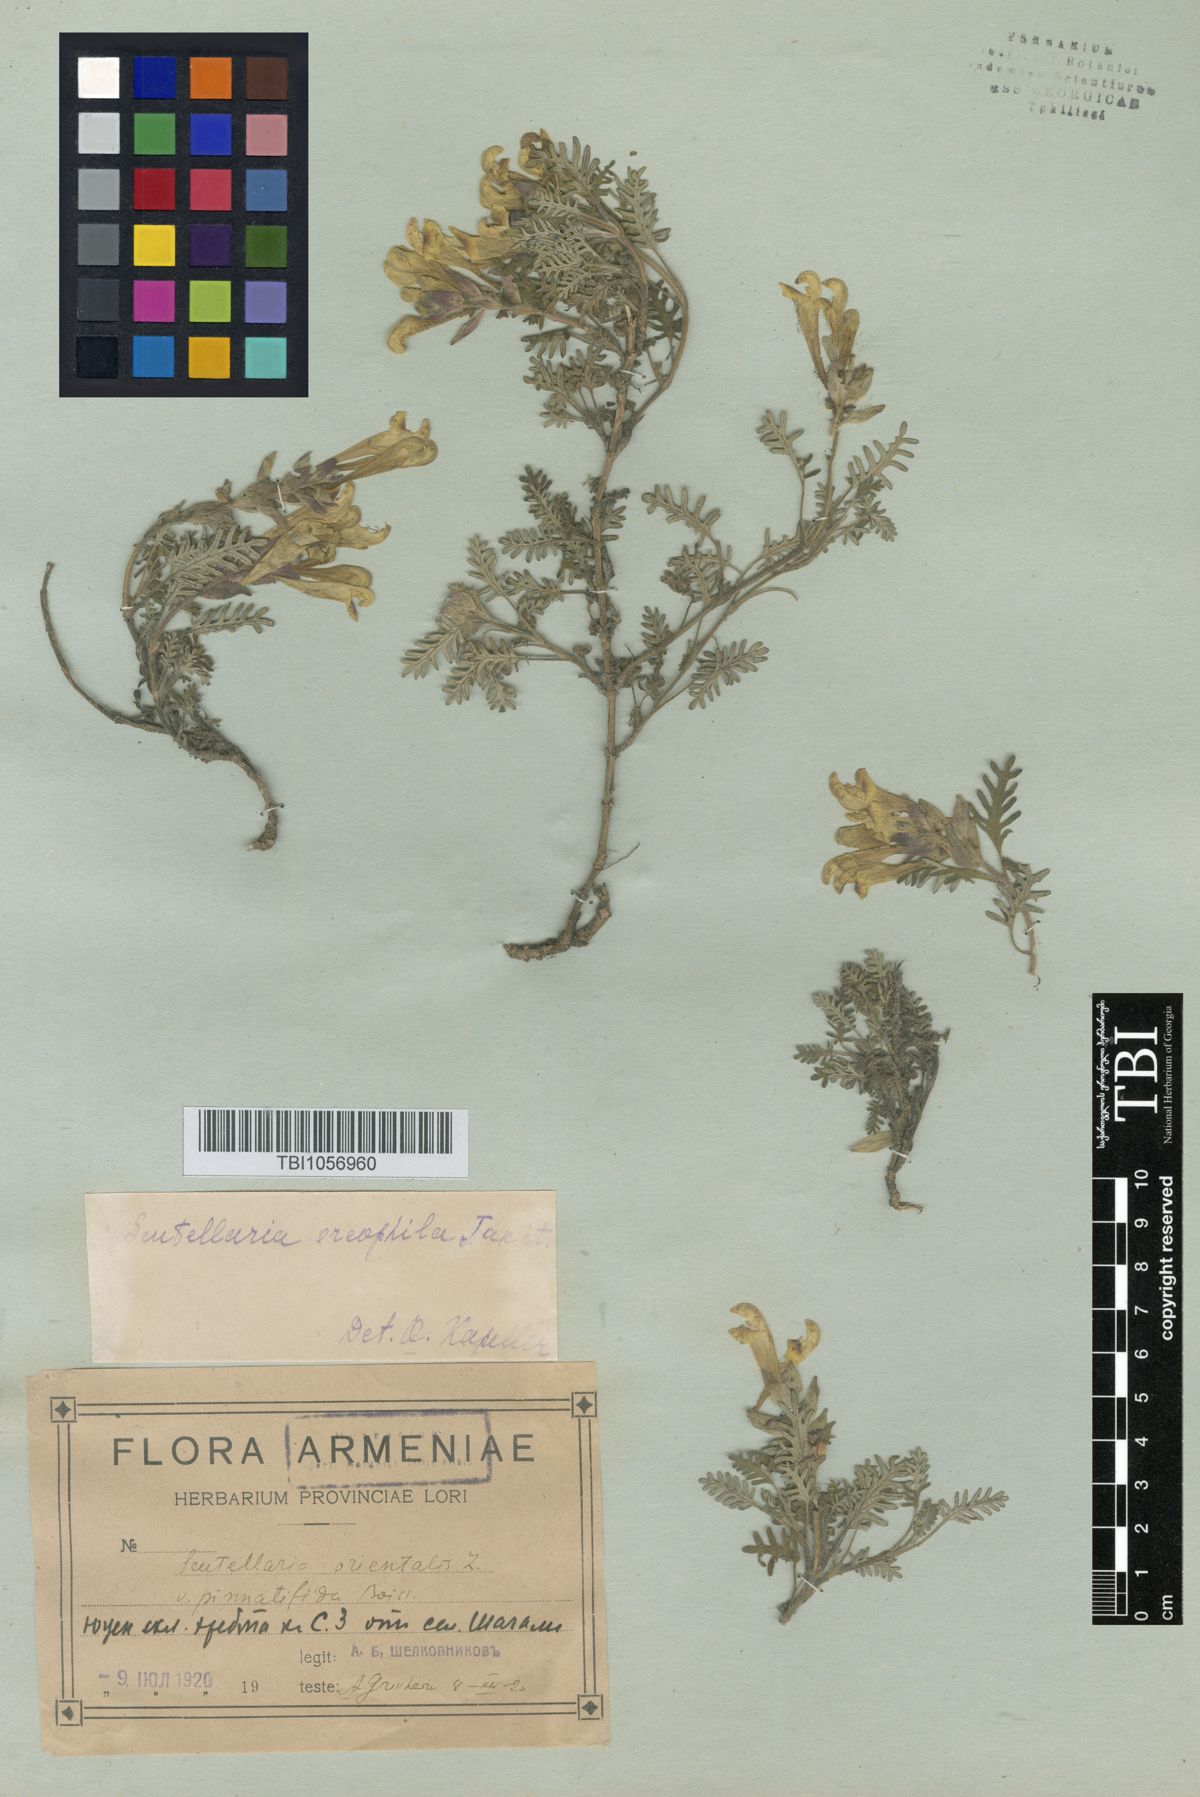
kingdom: Plantae
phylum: Tracheophyta
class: Magnoliopsida
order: Lamiales
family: Lamiaceae
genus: Scutellaria
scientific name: Scutellaria sosnowskyi
